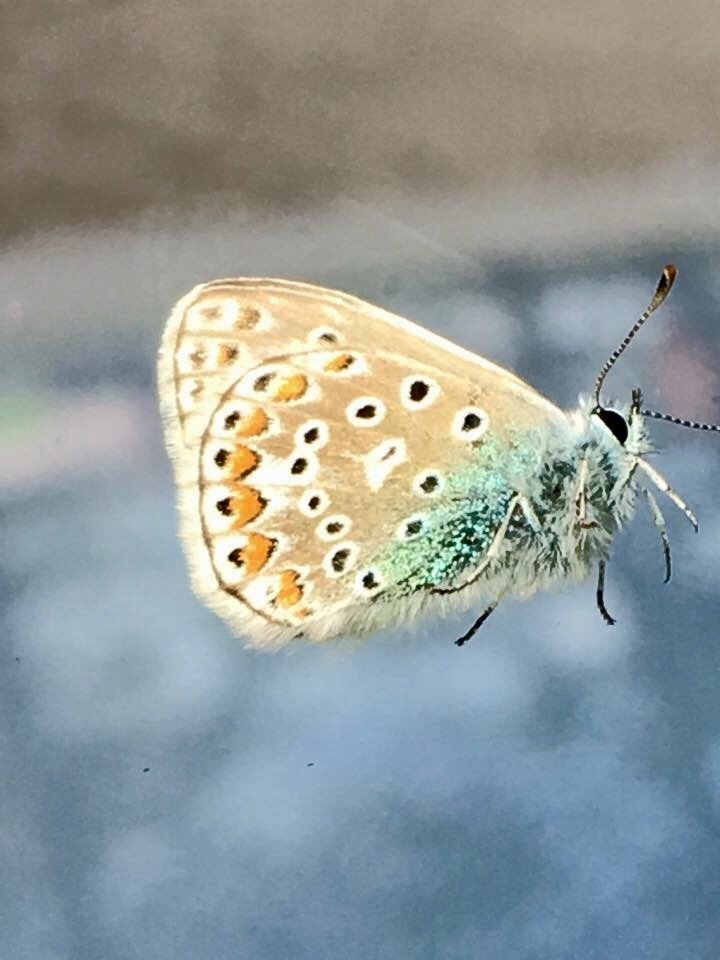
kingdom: Animalia
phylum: Arthropoda
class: Insecta
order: Lepidoptera
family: Lycaenidae
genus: Polyommatus
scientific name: Polyommatus icarus
